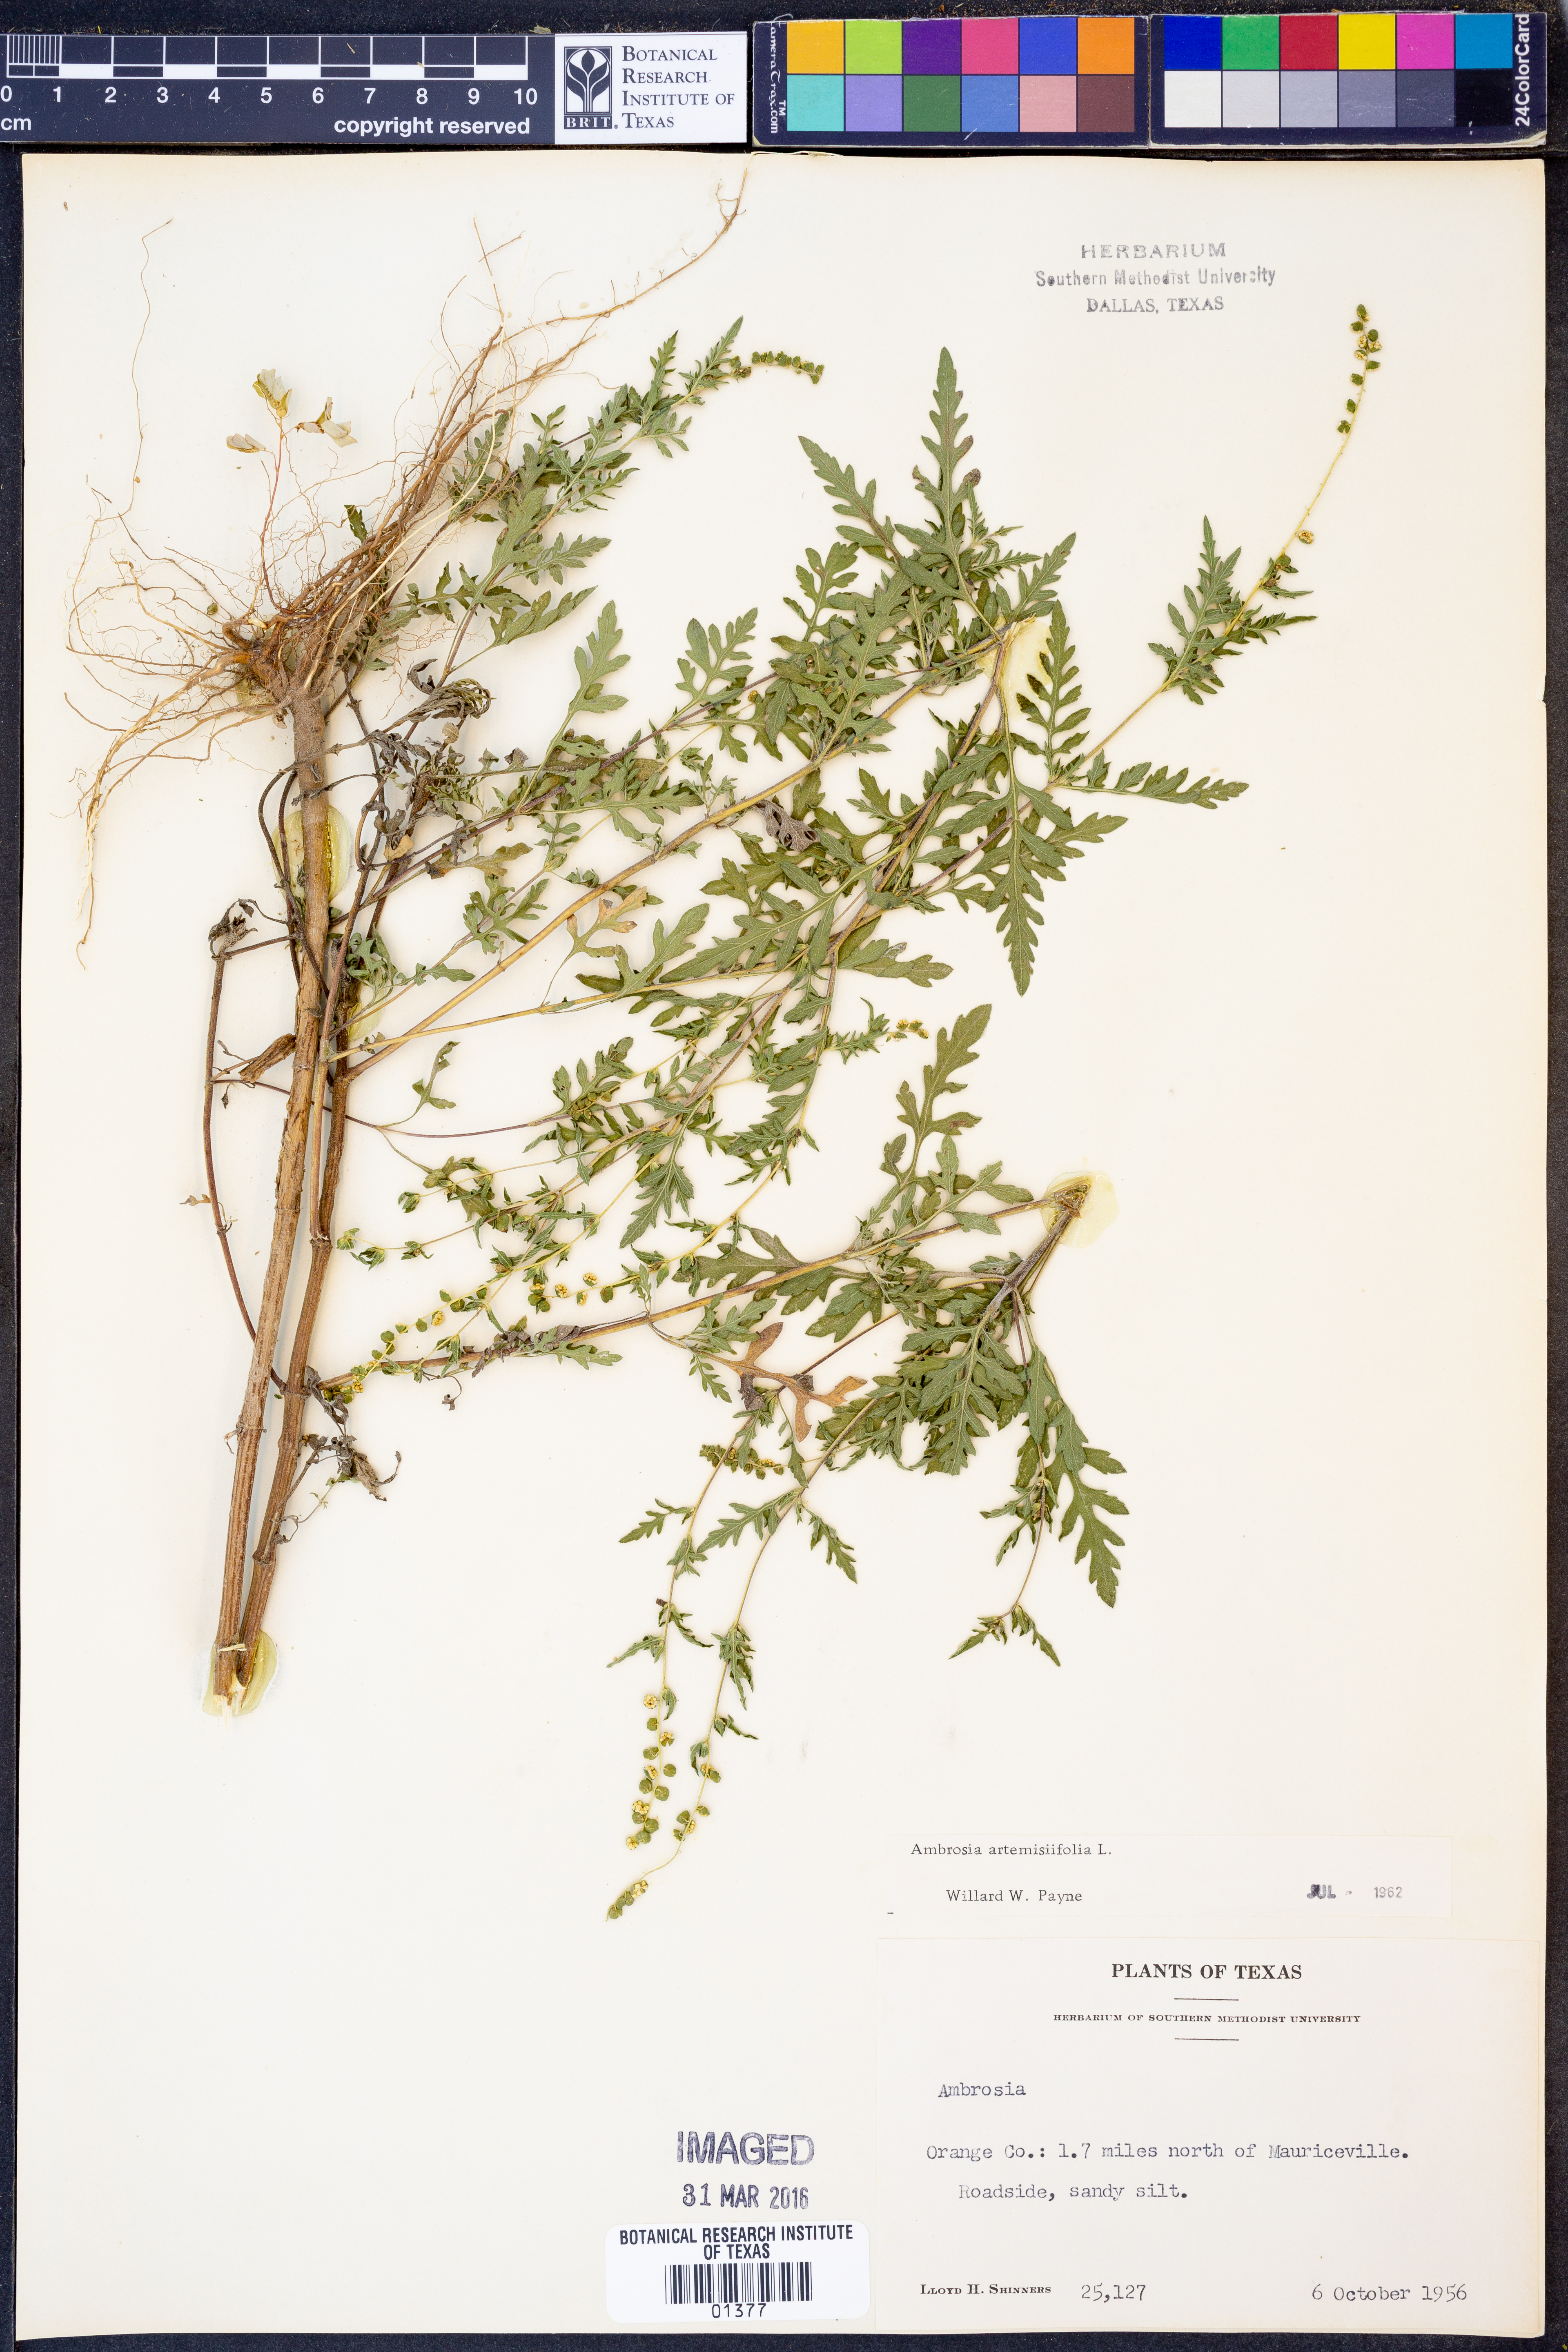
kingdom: Plantae
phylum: Tracheophyta
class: Magnoliopsida
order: Asterales
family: Asteraceae
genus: Ambrosia
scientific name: Ambrosia artemisiifolia
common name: Annual ragweed
